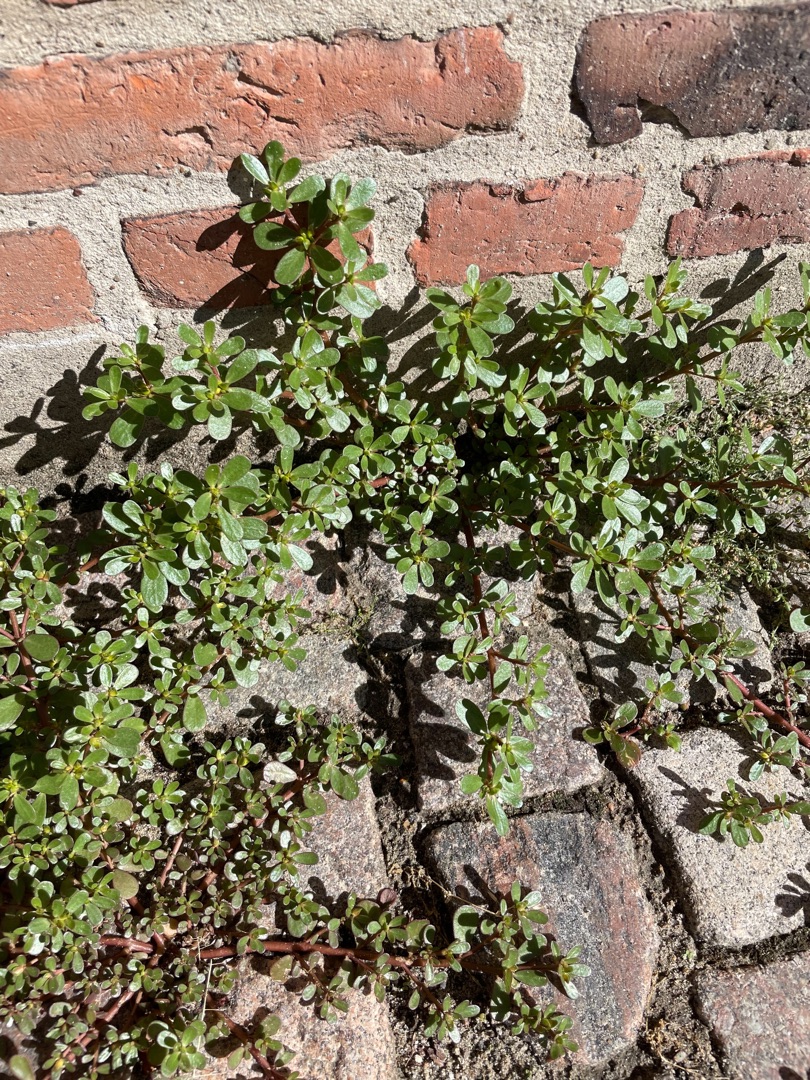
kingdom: Plantae
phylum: Tracheophyta
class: Magnoliopsida
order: Caryophyllales
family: Portulacaceae
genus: Portulaca
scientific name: Portulaca oleracea
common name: Portulak
